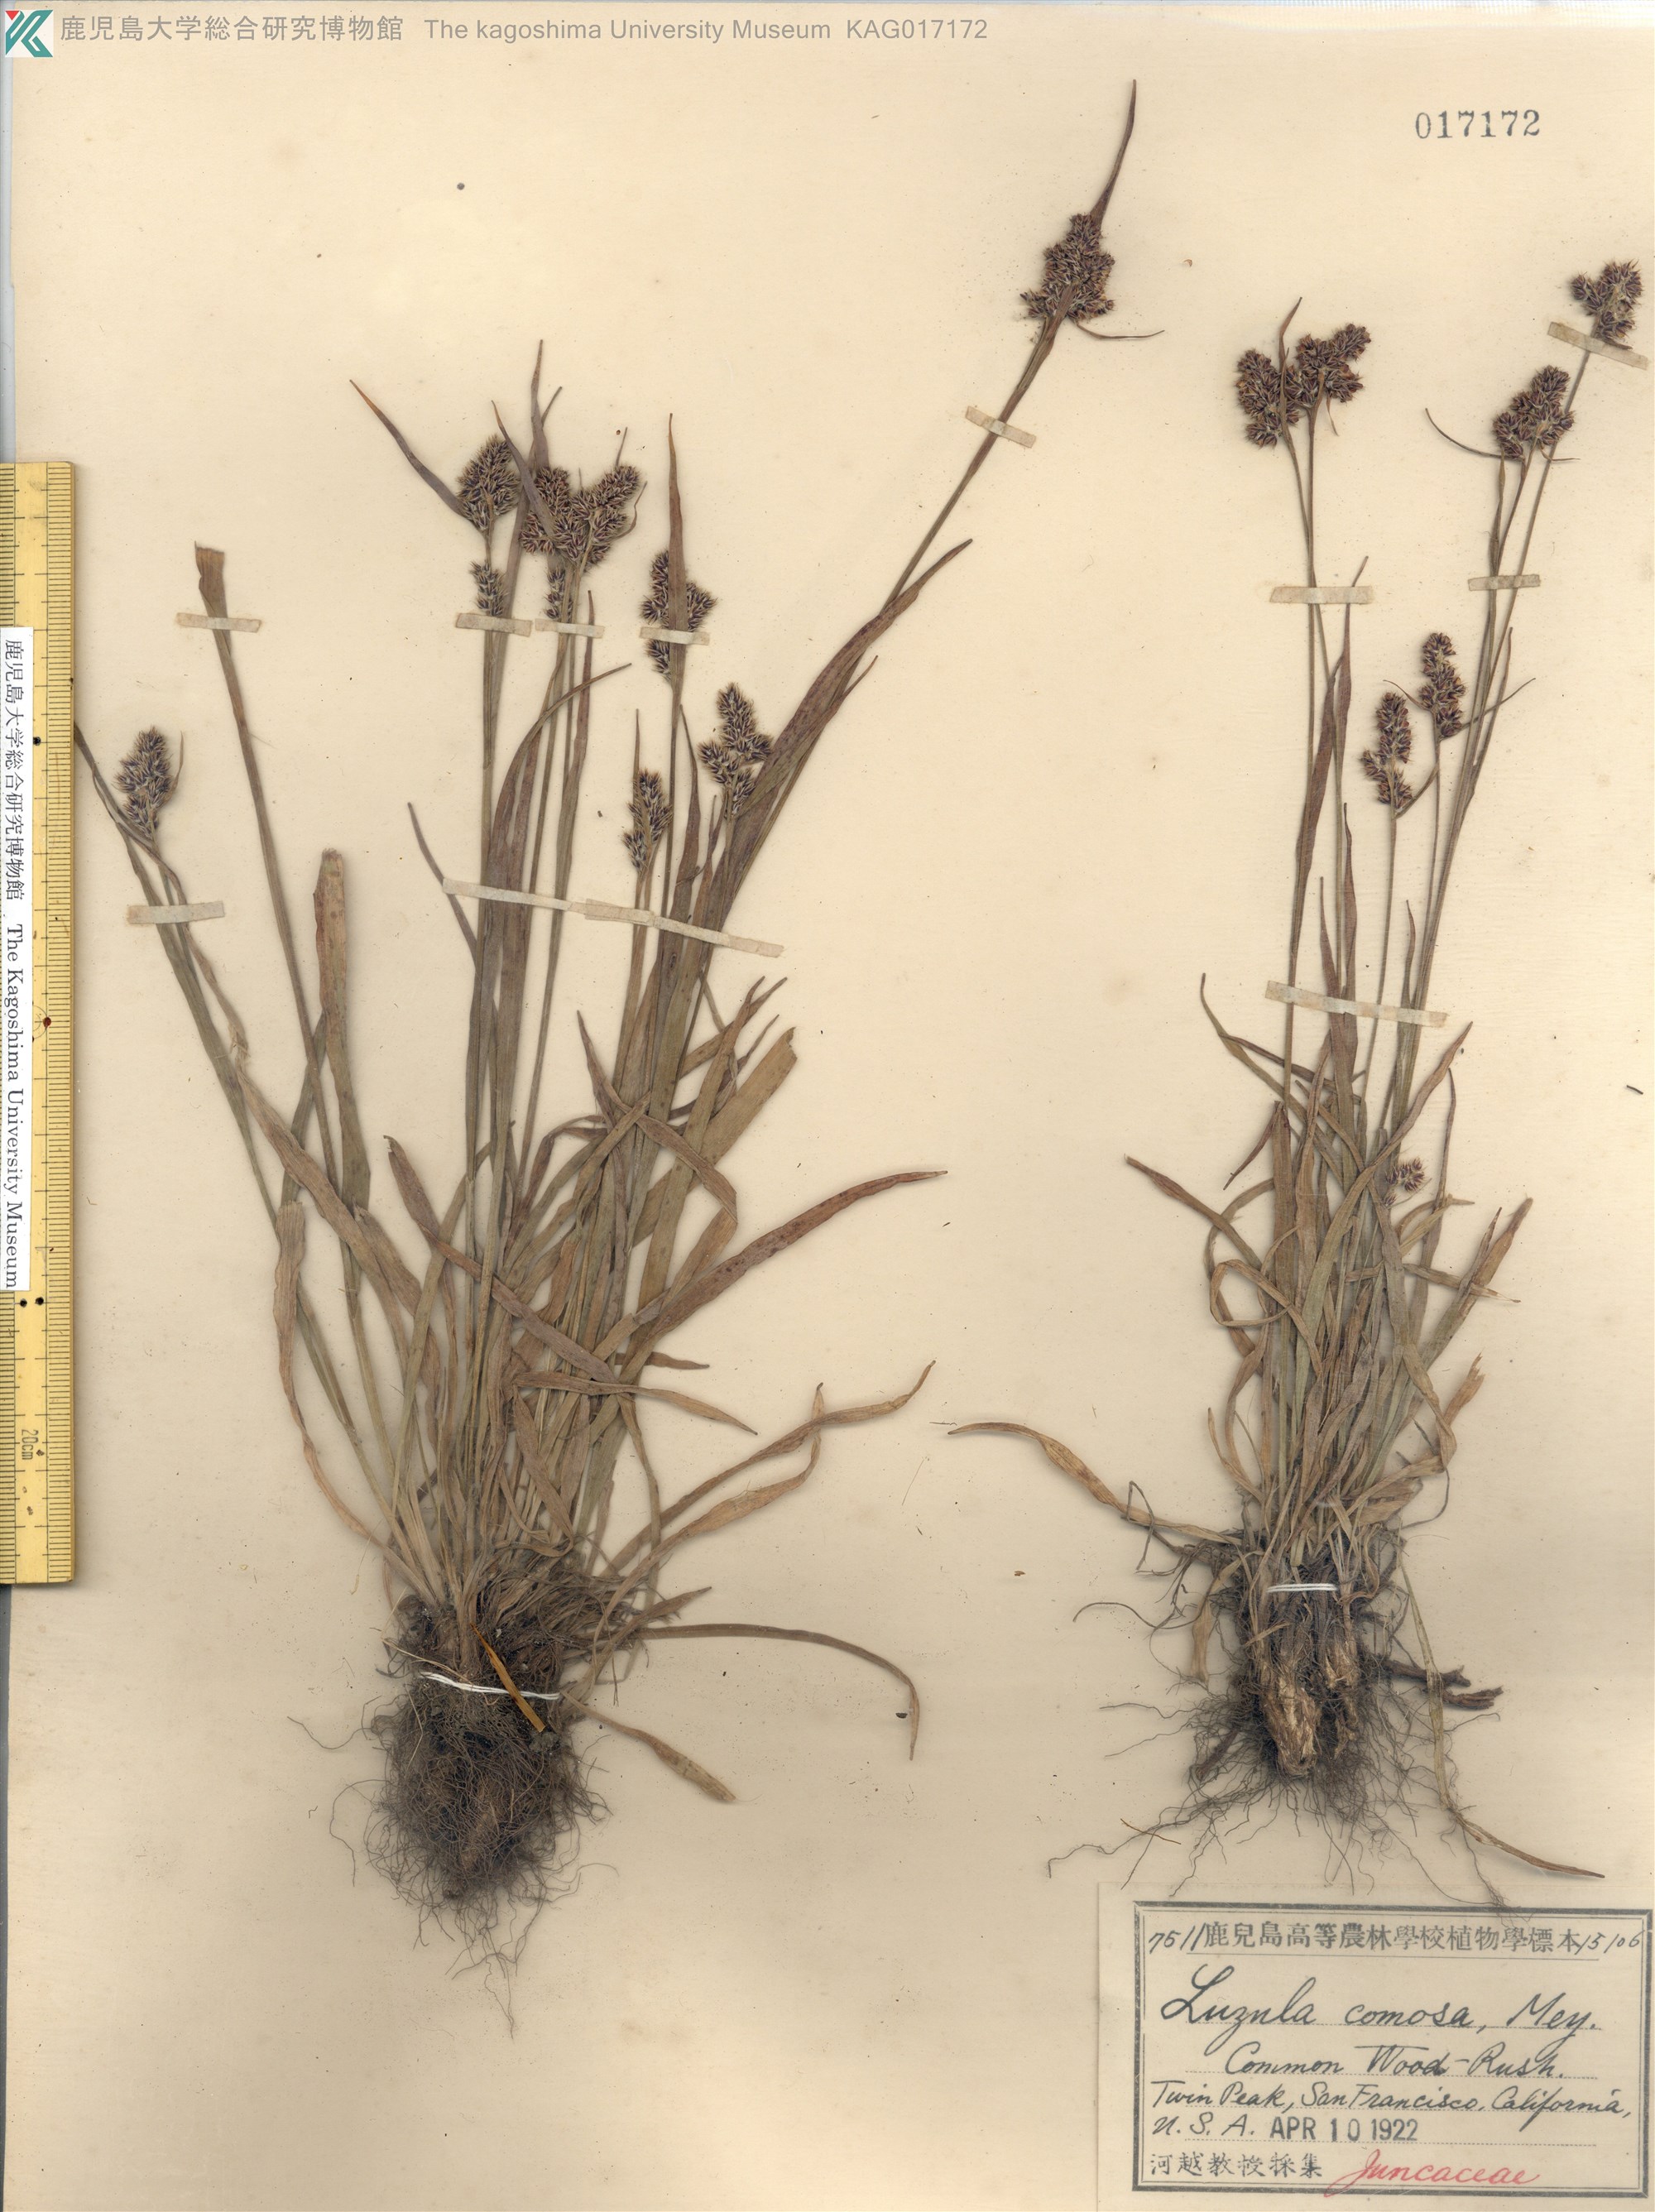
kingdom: Plantae
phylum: Tracheophyta
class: Liliopsida
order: Poales
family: Juncaceae
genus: Luzula
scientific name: Luzula comosa
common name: Pacific woodrush
